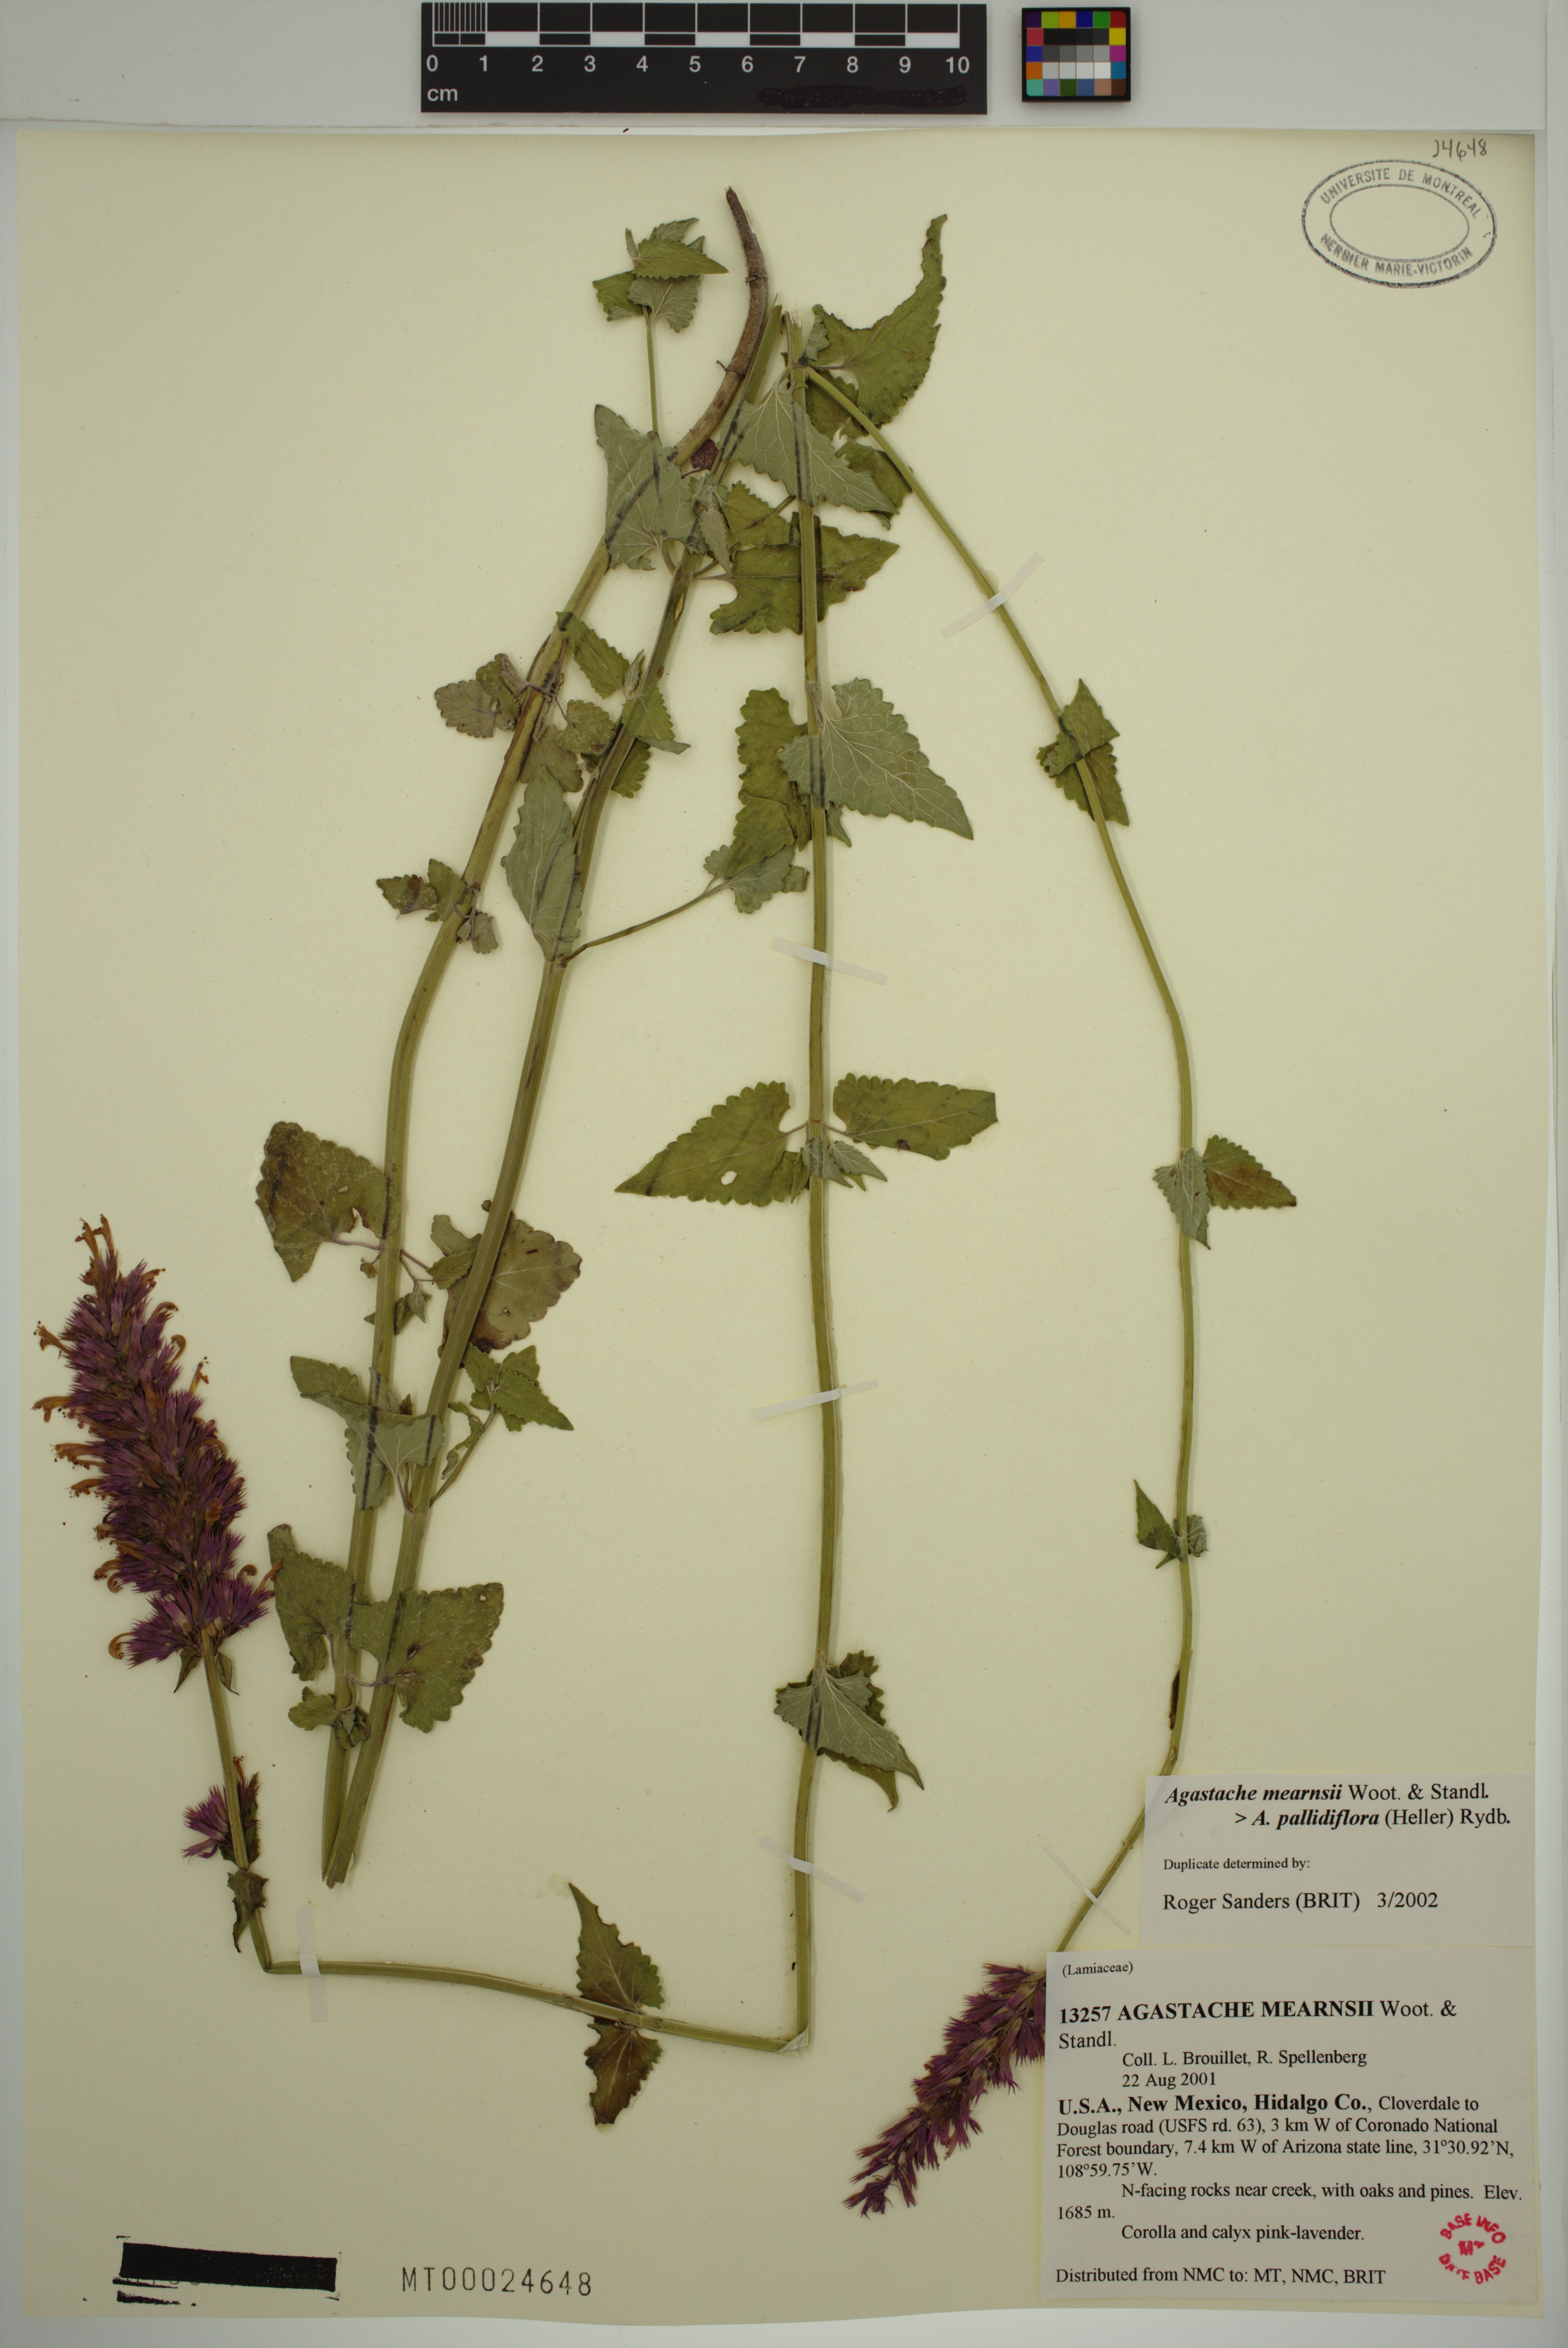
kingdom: Plantae
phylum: Tracheophyta
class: Magnoliopsida
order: Lamiales
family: Lamiaceae
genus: Agastache
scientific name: Agastache mearnsii
